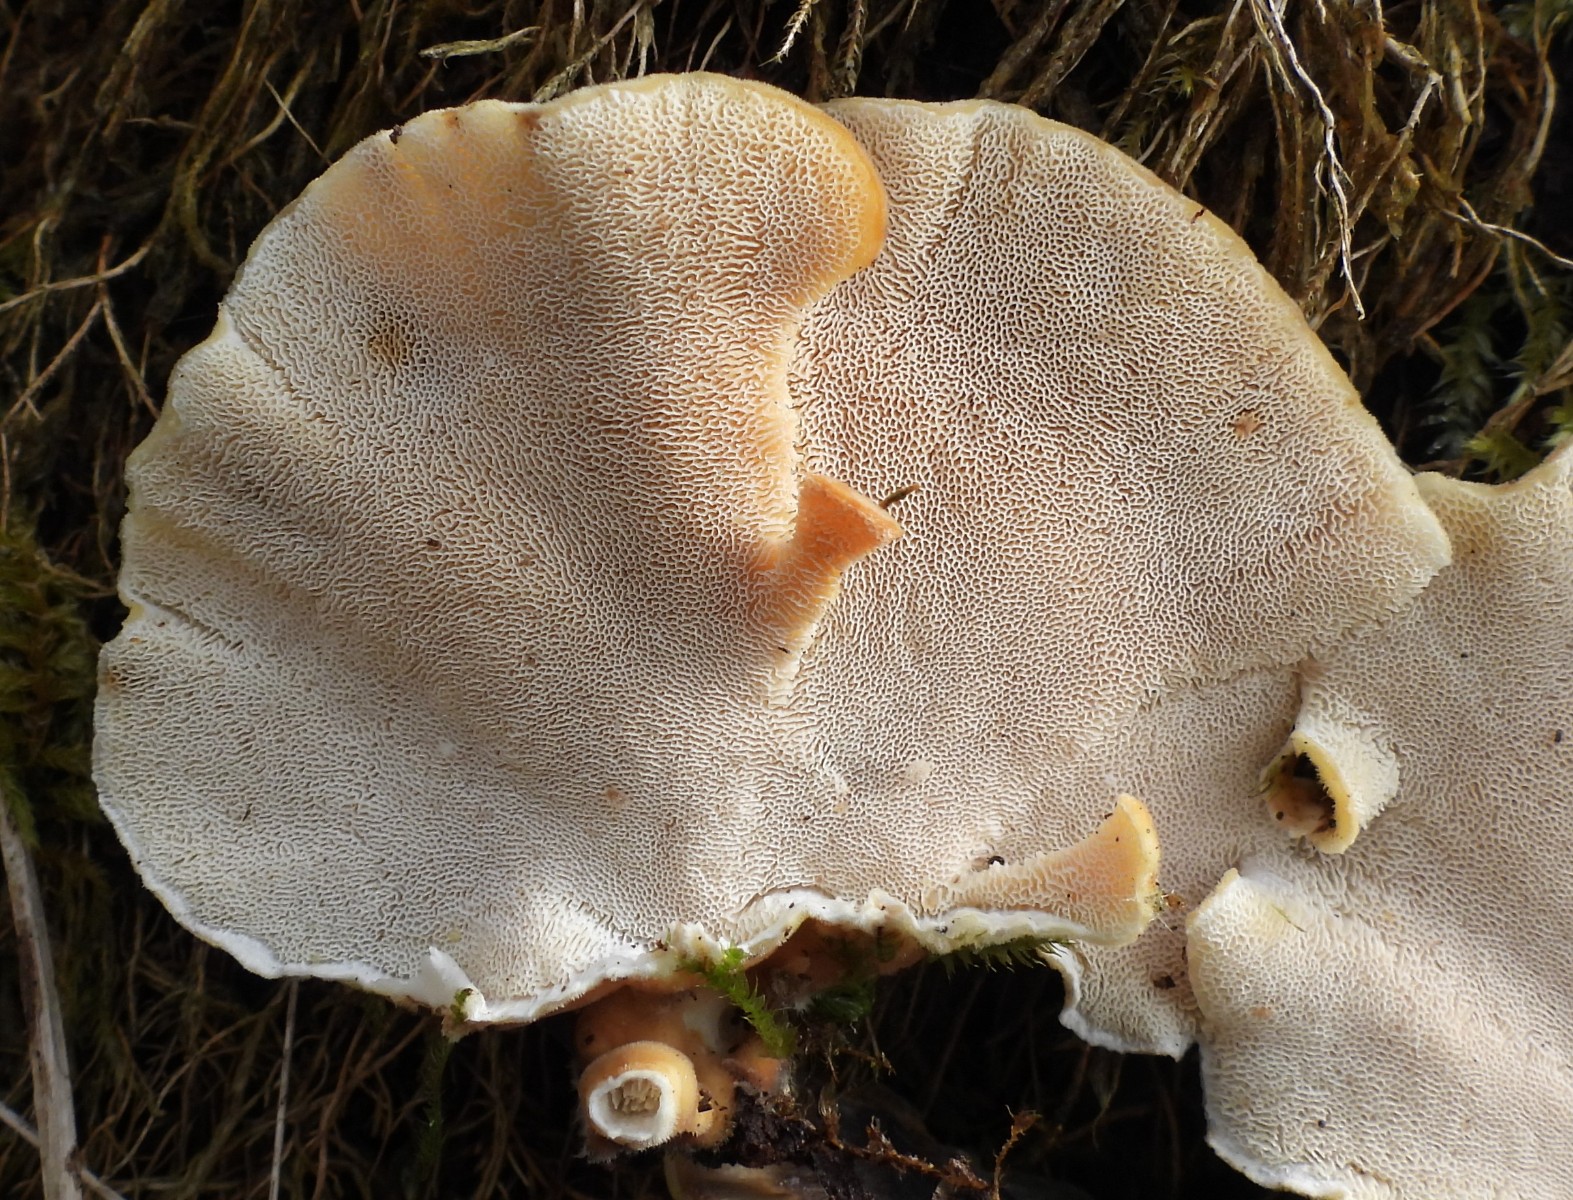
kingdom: Fungi
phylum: Basidiomycota
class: Agaricomycetes
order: Polyporales
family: Polyporaceae
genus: Trametes
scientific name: Trametes ochracea
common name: bæltet læderporesvamp
